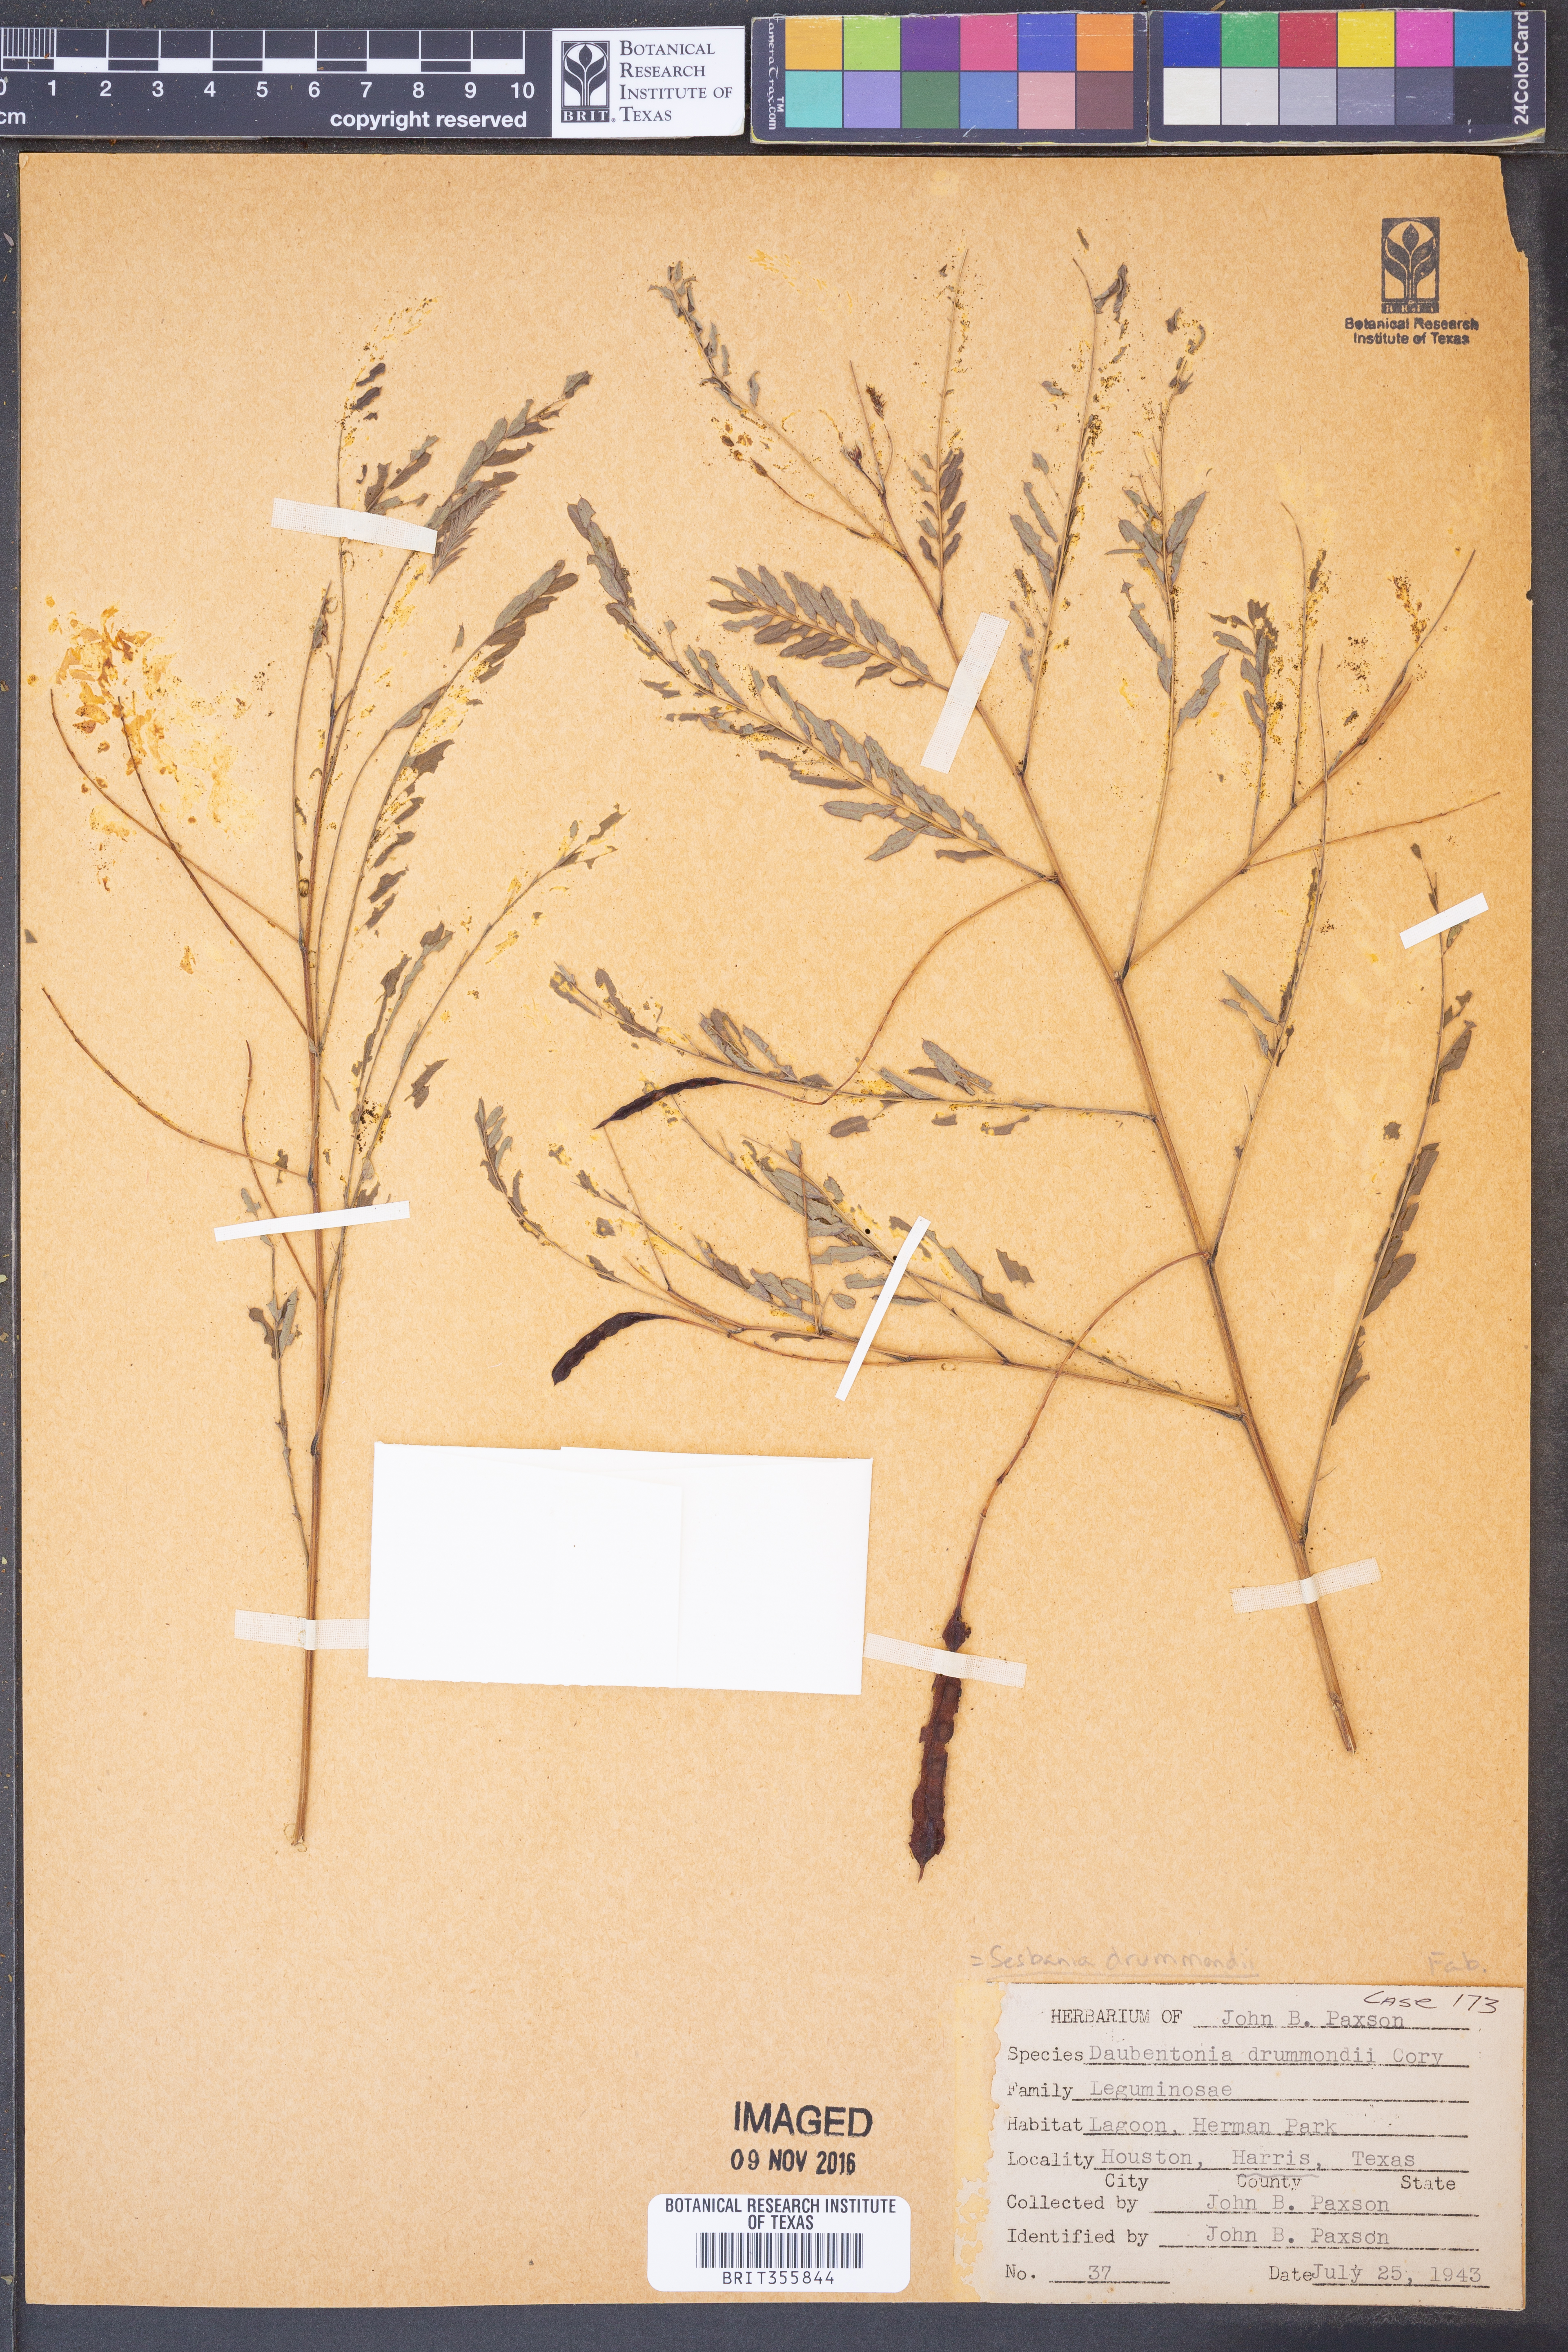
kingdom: Plantae
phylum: Tracheophyta
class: Magnoliopsida
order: Fabales
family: Fabaceae
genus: Sesbania
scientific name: Sesbania drummondii
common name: Poison-bean
